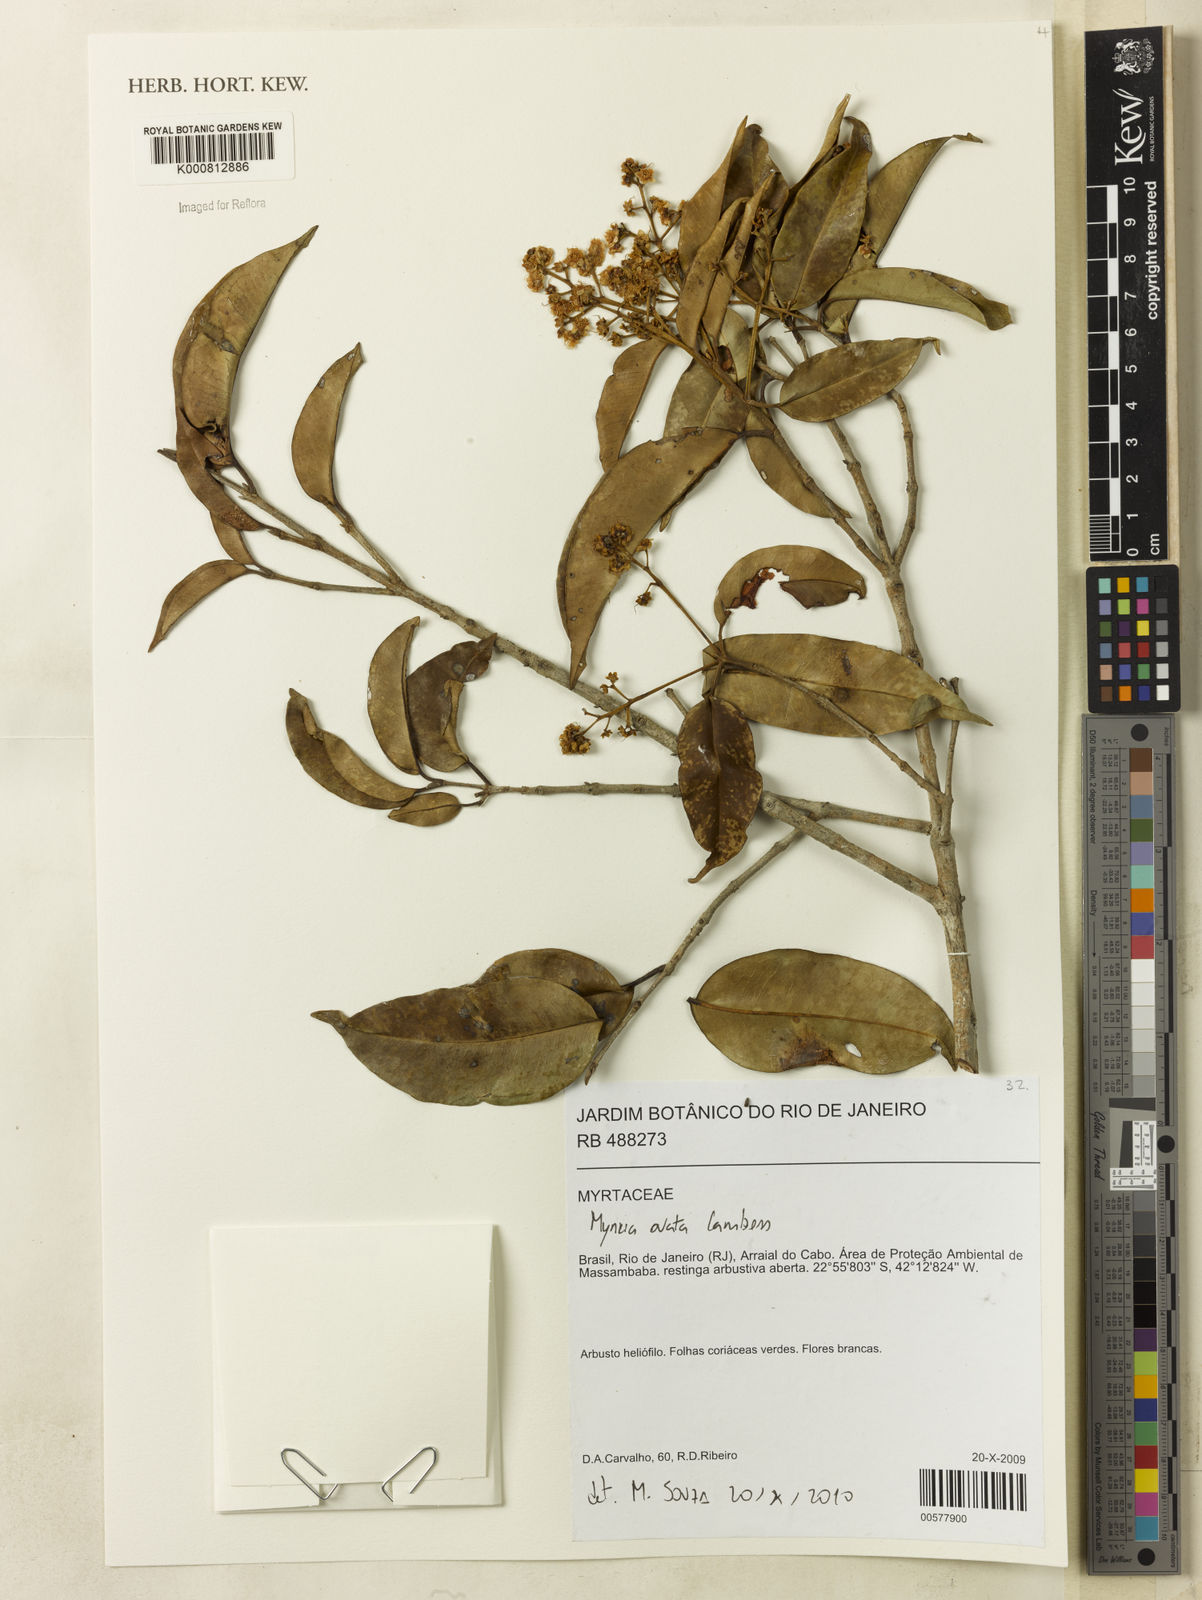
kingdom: Plantae
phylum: Tracheophyta
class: Magnoliopsida
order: Myrtales
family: Myrtaceae
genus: Myrcia
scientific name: Myrcia ovata
